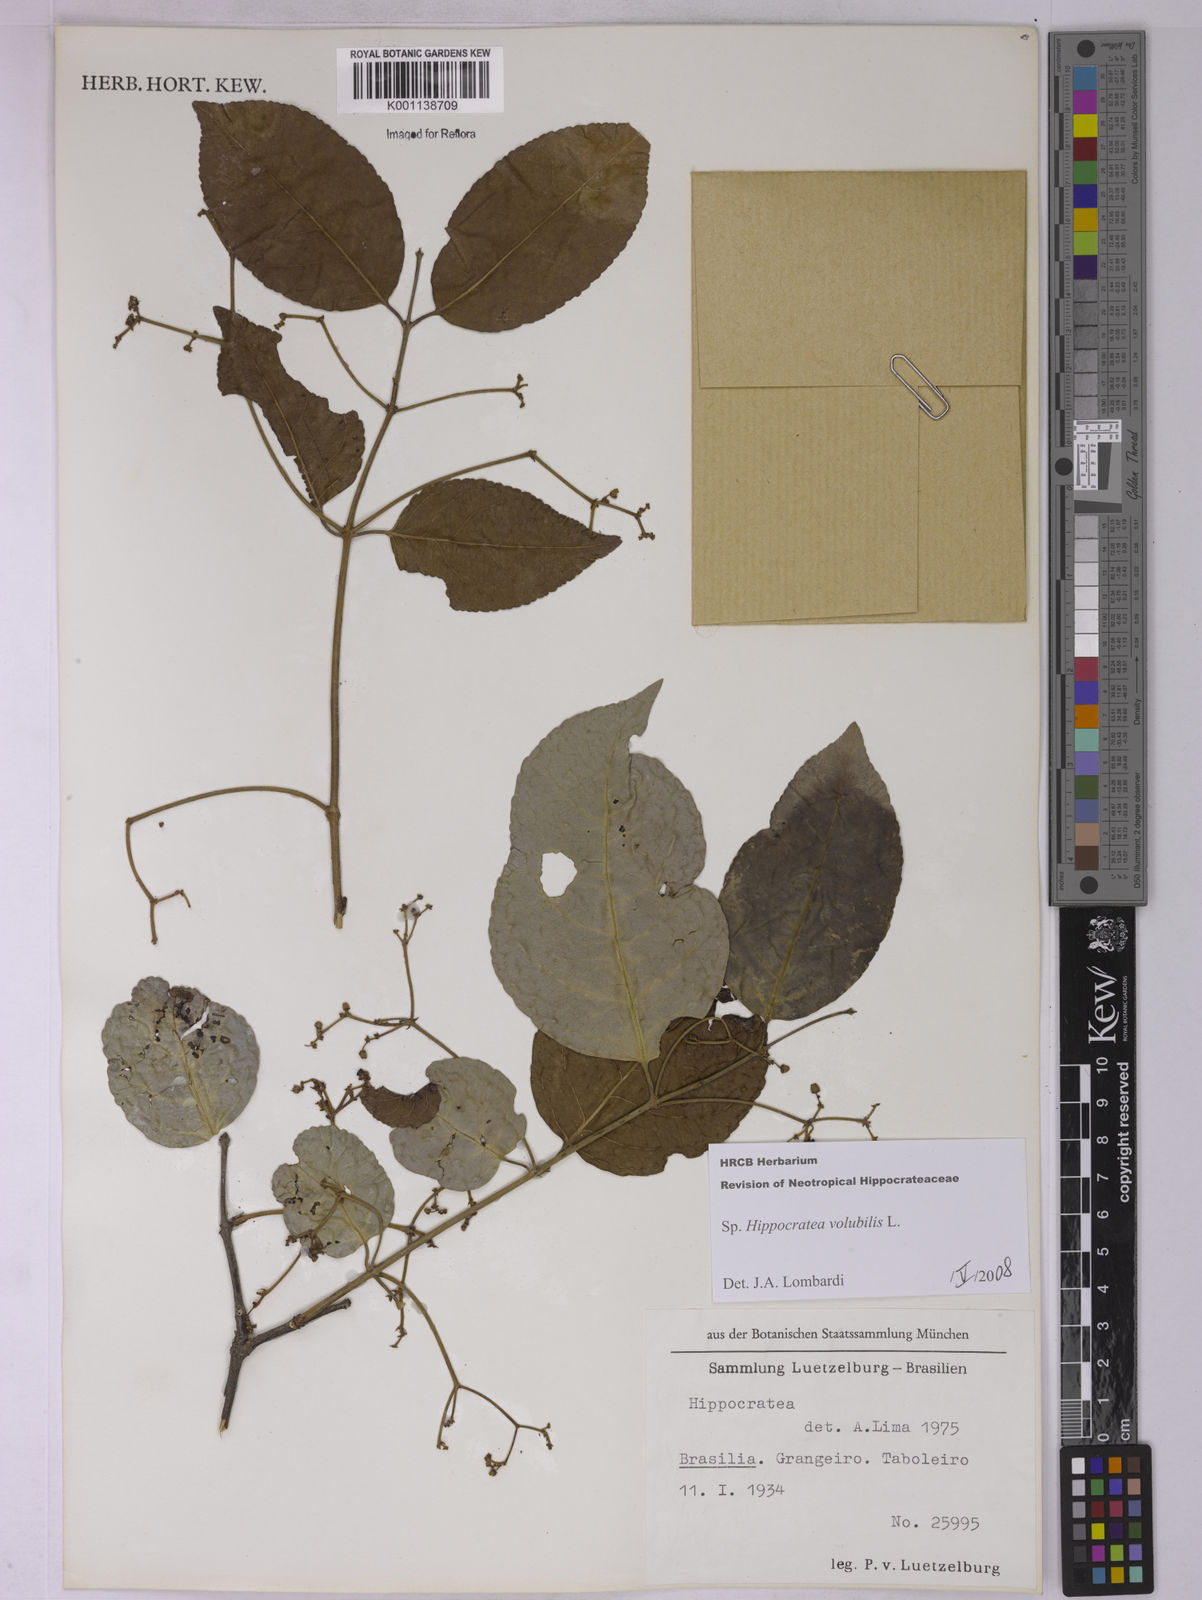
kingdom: Plantae
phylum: Tracheophyta
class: Magnoliopsida
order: Celastrales
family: Celastraceae
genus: Hippocratea
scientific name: Hippocratea volubilis
